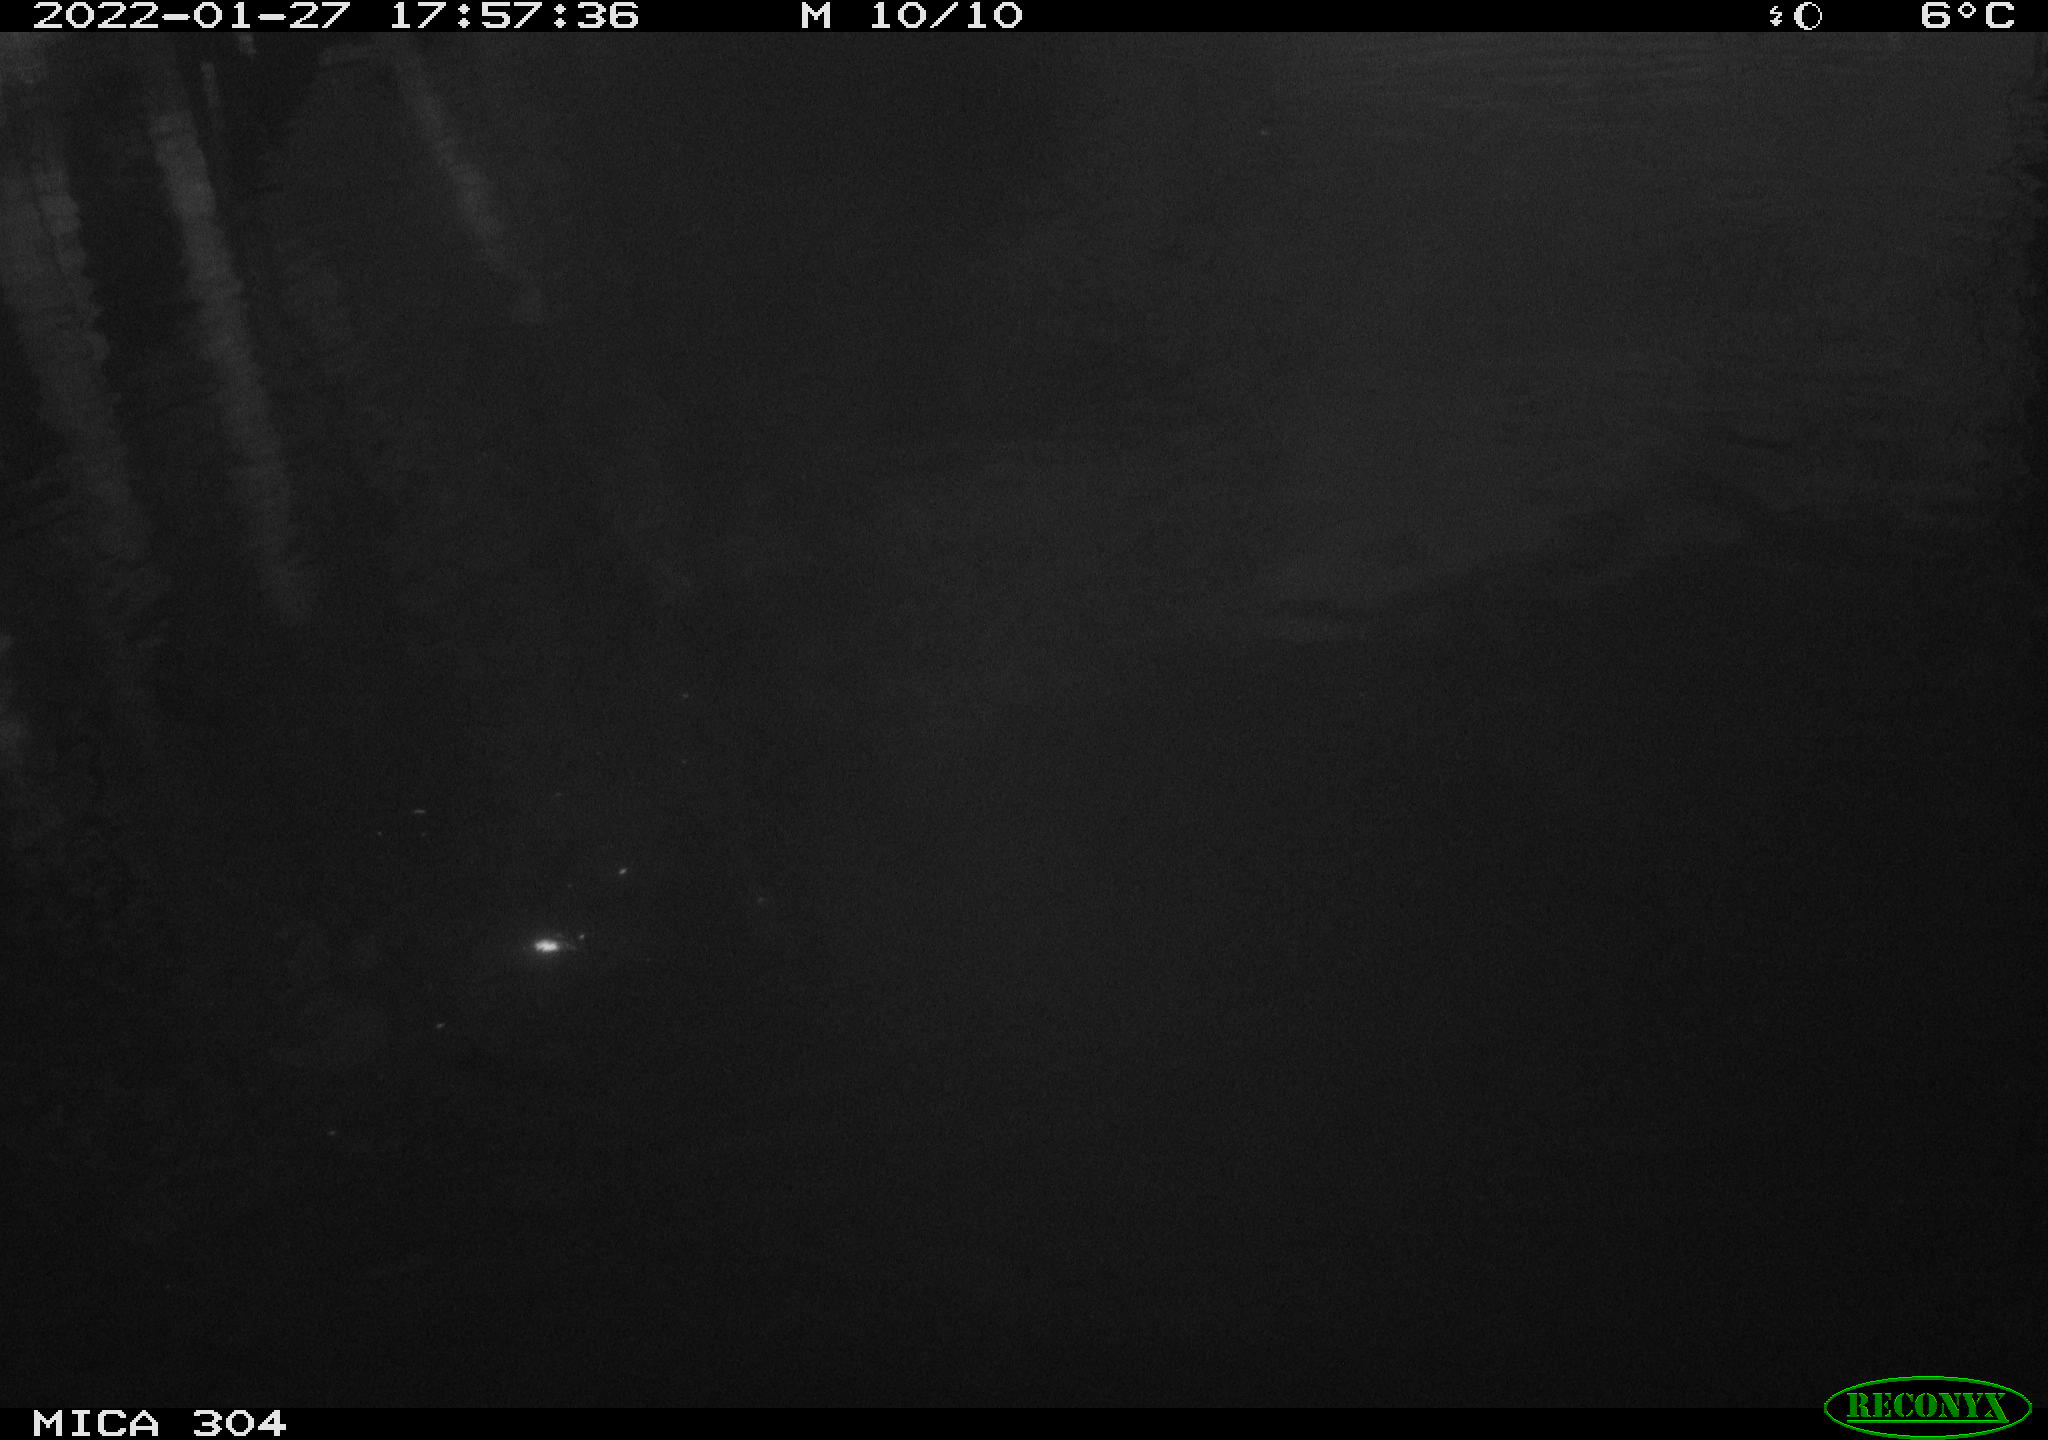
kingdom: Animalia
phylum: Chordata
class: Aves
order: Anseriformes
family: Anatidae
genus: Anas
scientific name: Anas
